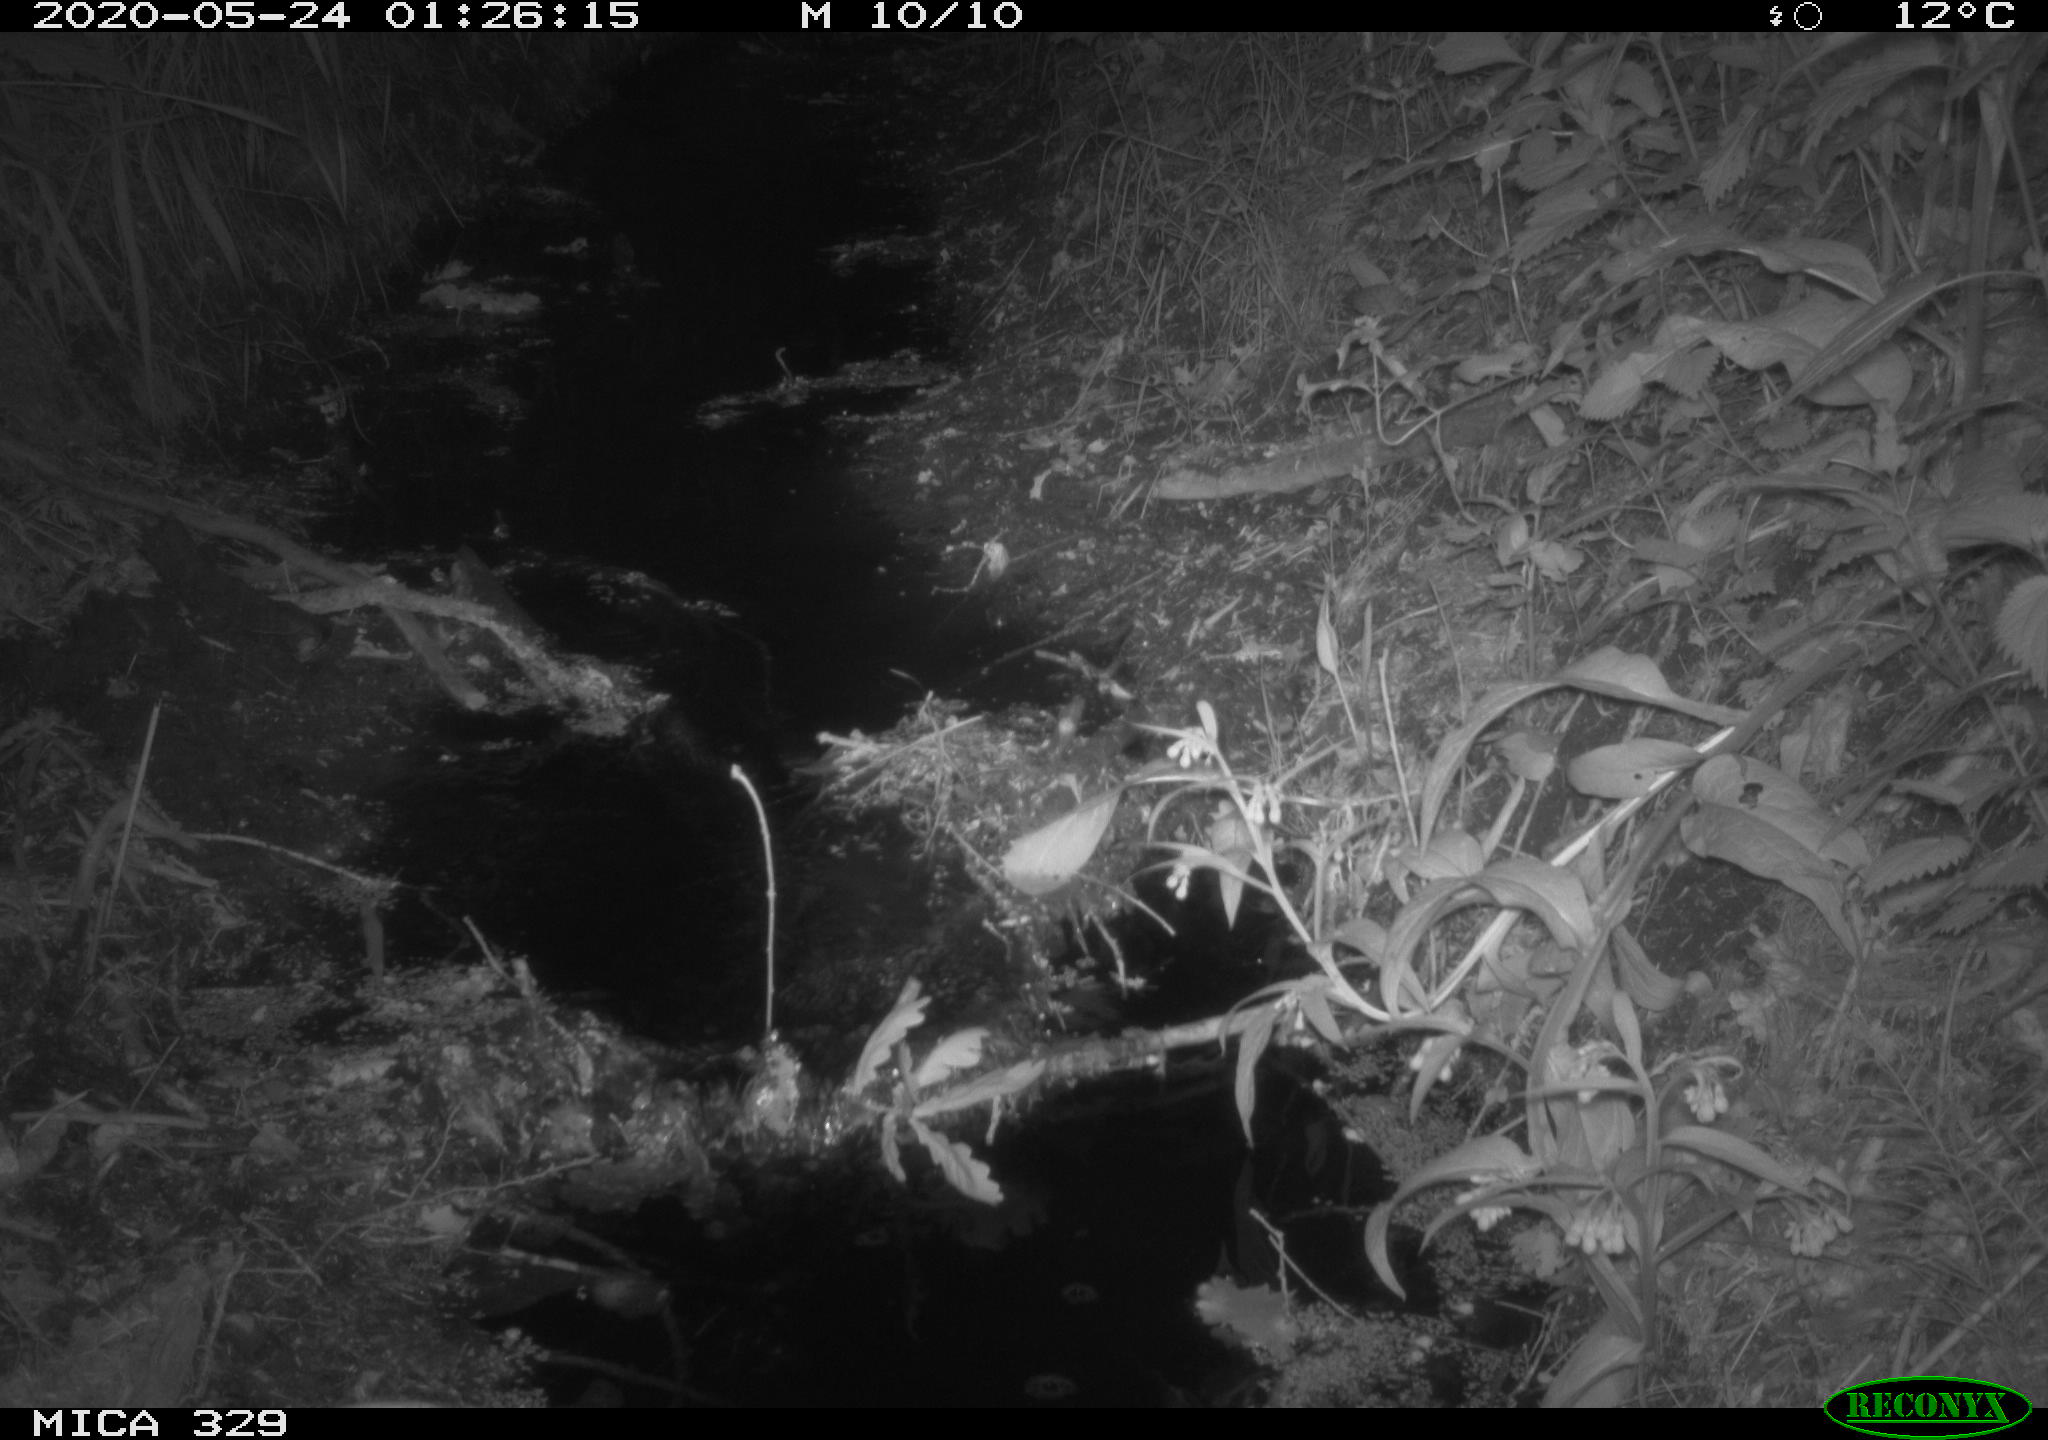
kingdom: Animalia
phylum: Chordata
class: Mammalia
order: Rodentia
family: Muridae
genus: Rattus
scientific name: Rattus norvegicus
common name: Brown rat
